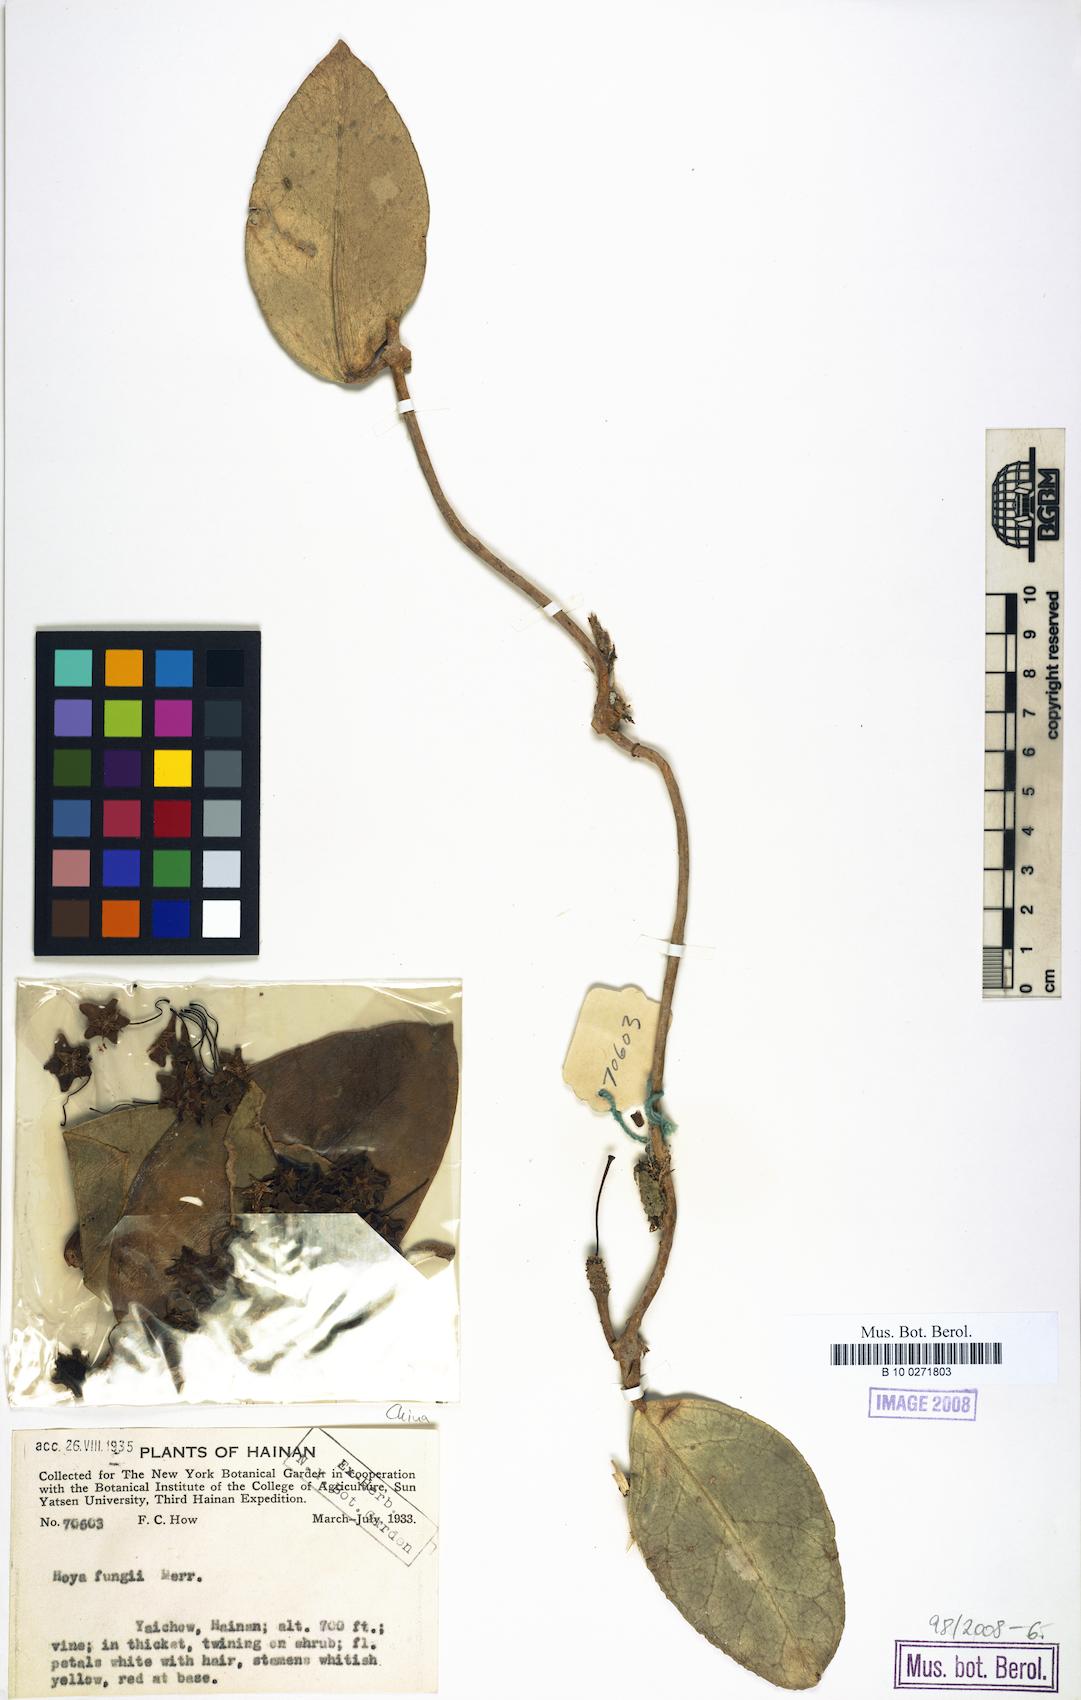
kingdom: Plantae
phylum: Tracheophyta
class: Magnoliopsida
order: Gentianales
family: Apocynaceae
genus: Hoya
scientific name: Hoya fungii
